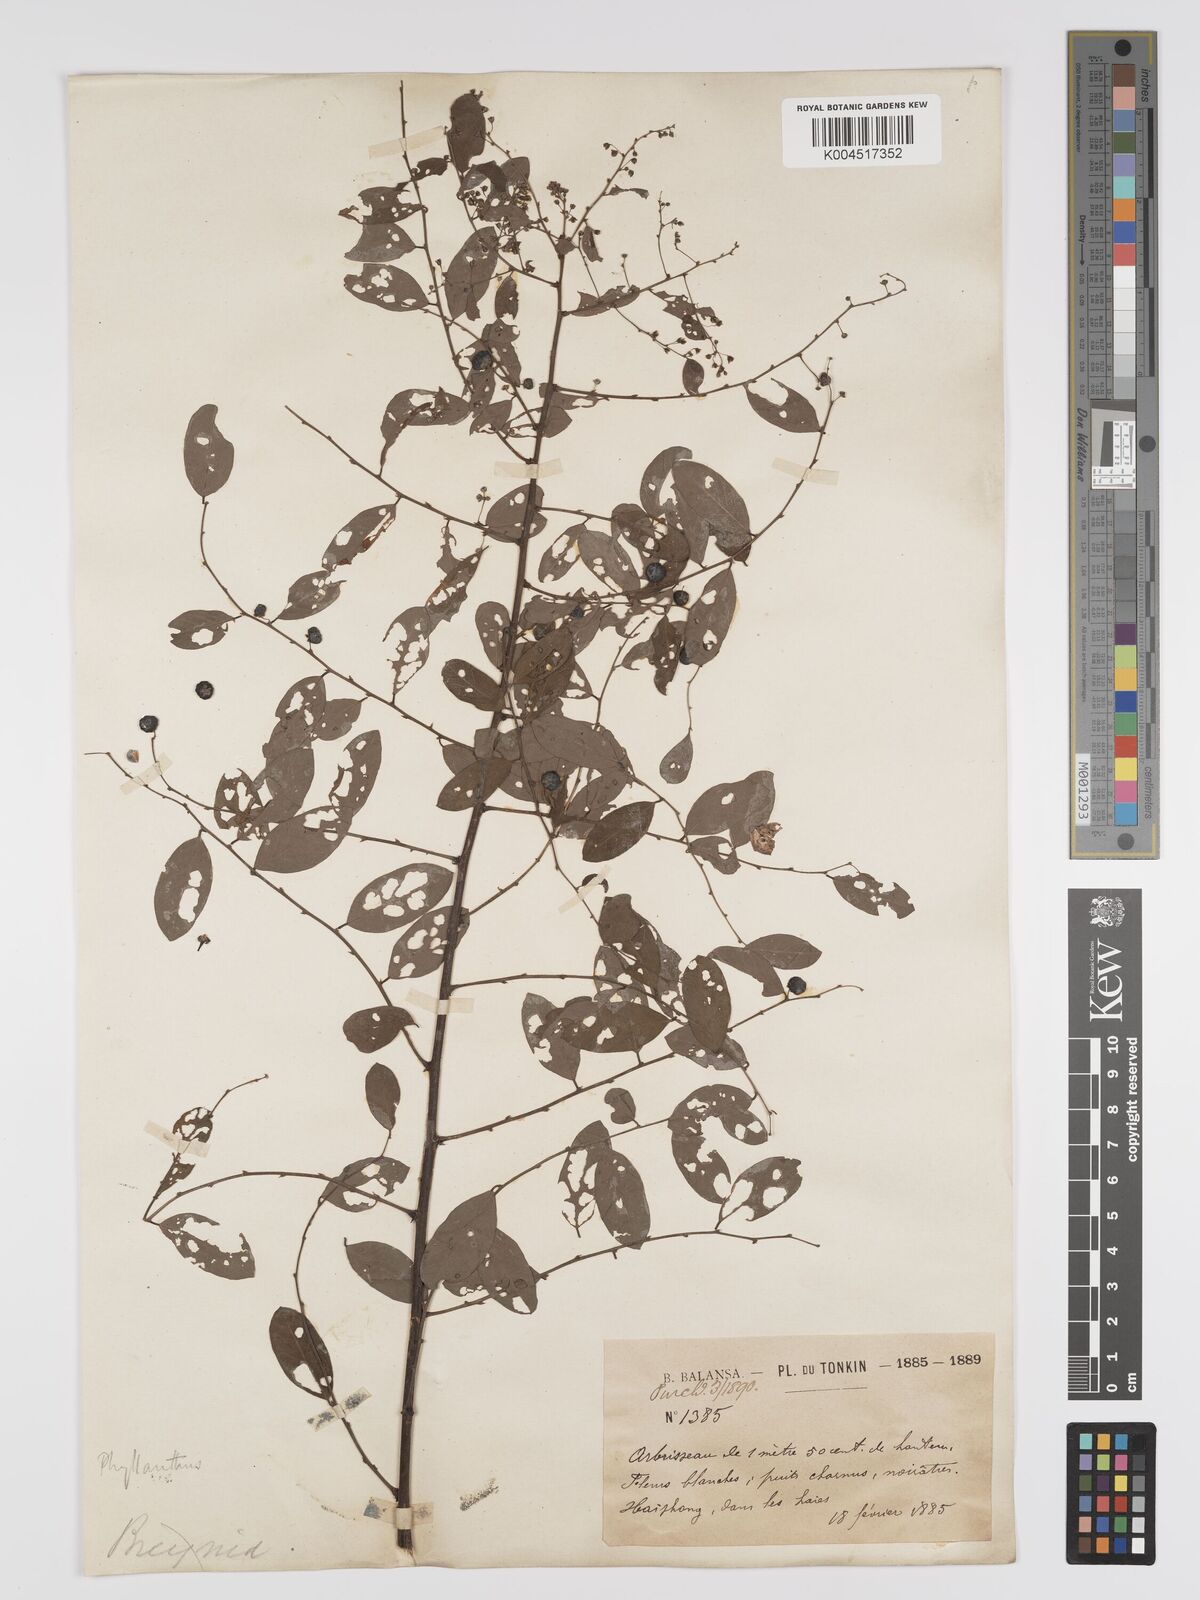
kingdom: Plantae
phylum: Tracheophyta
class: Magnoliopsida
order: Malpighiales
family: Phyllanthaceae
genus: Phyllanthus
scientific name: Phyllanthus
